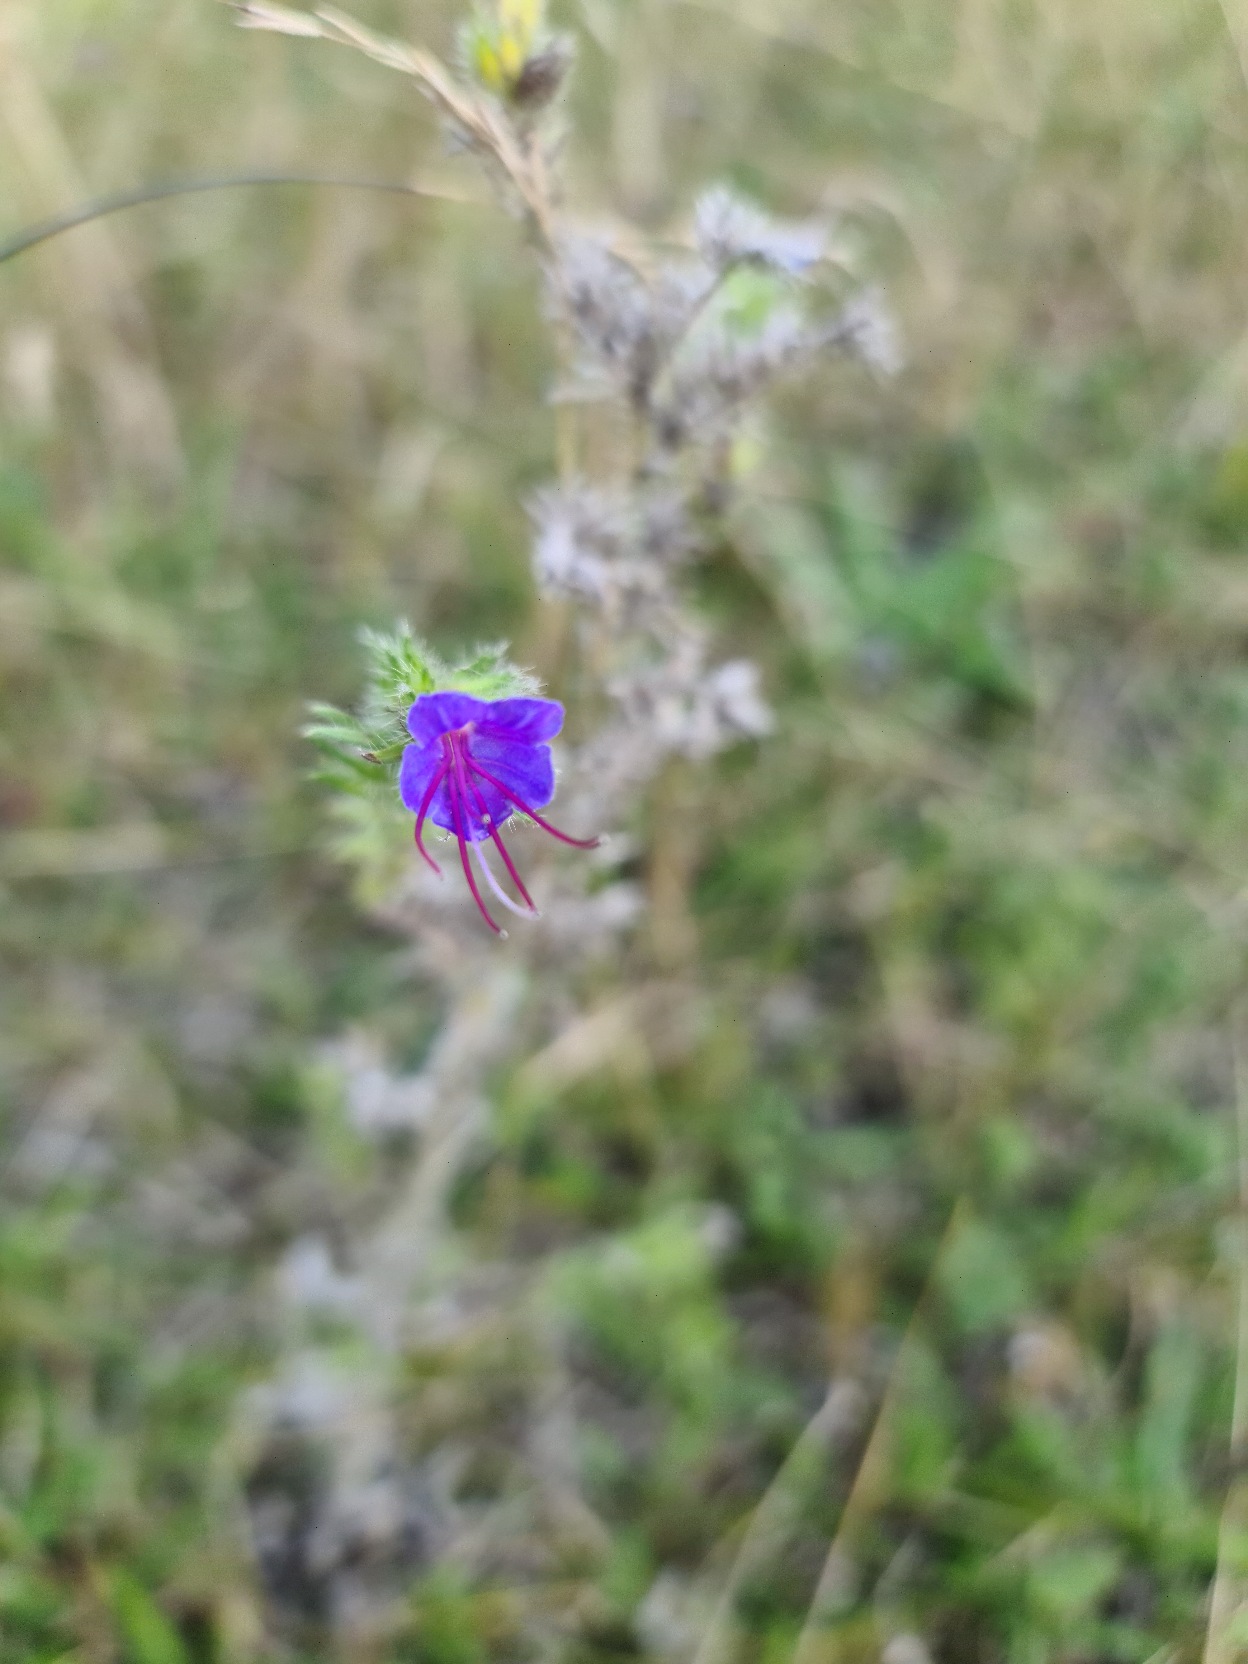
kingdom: Plantae
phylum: Tracheophyta
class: Magnoliopsida
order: Boraginales
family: Boraginaceae
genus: Echium
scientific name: Echium vulgare
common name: Slangehoved
